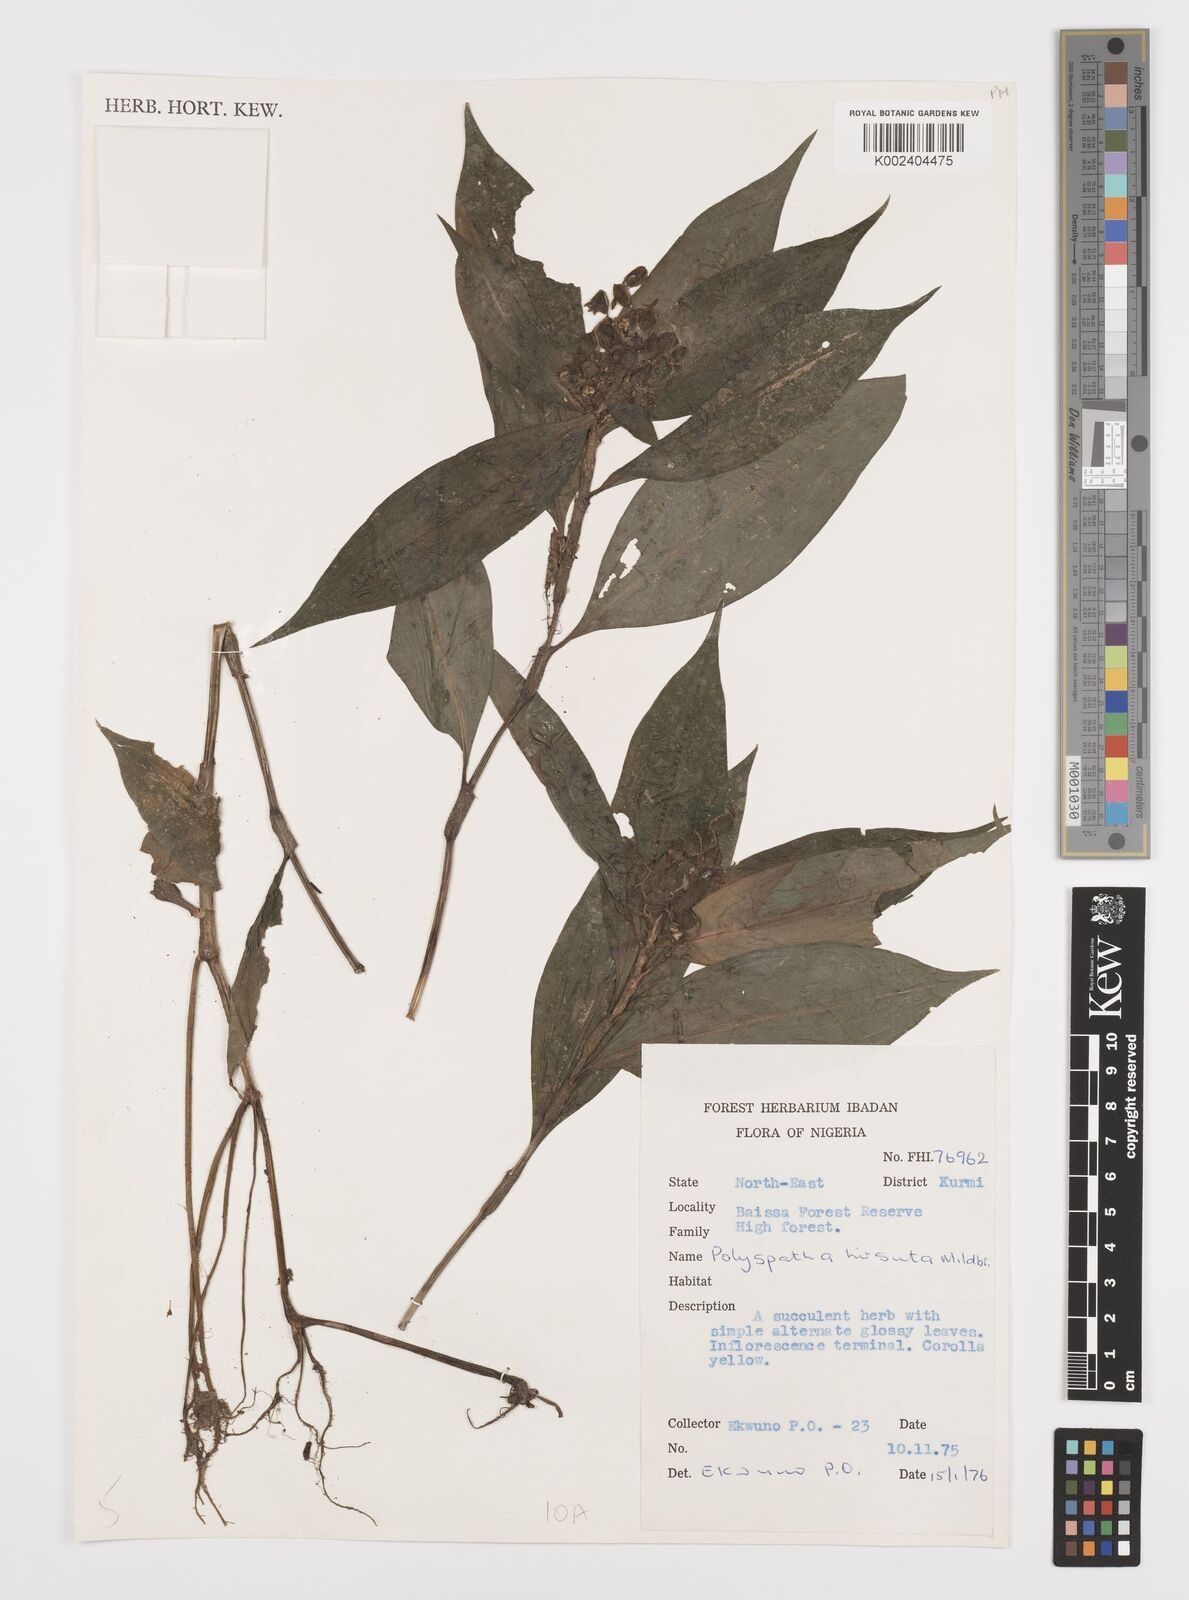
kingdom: Plantae
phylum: Tracheophyta
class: Liliopsida
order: Commelinales
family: Commelinaceae
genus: Polyspatha
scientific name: Polyspatha hirsuta
